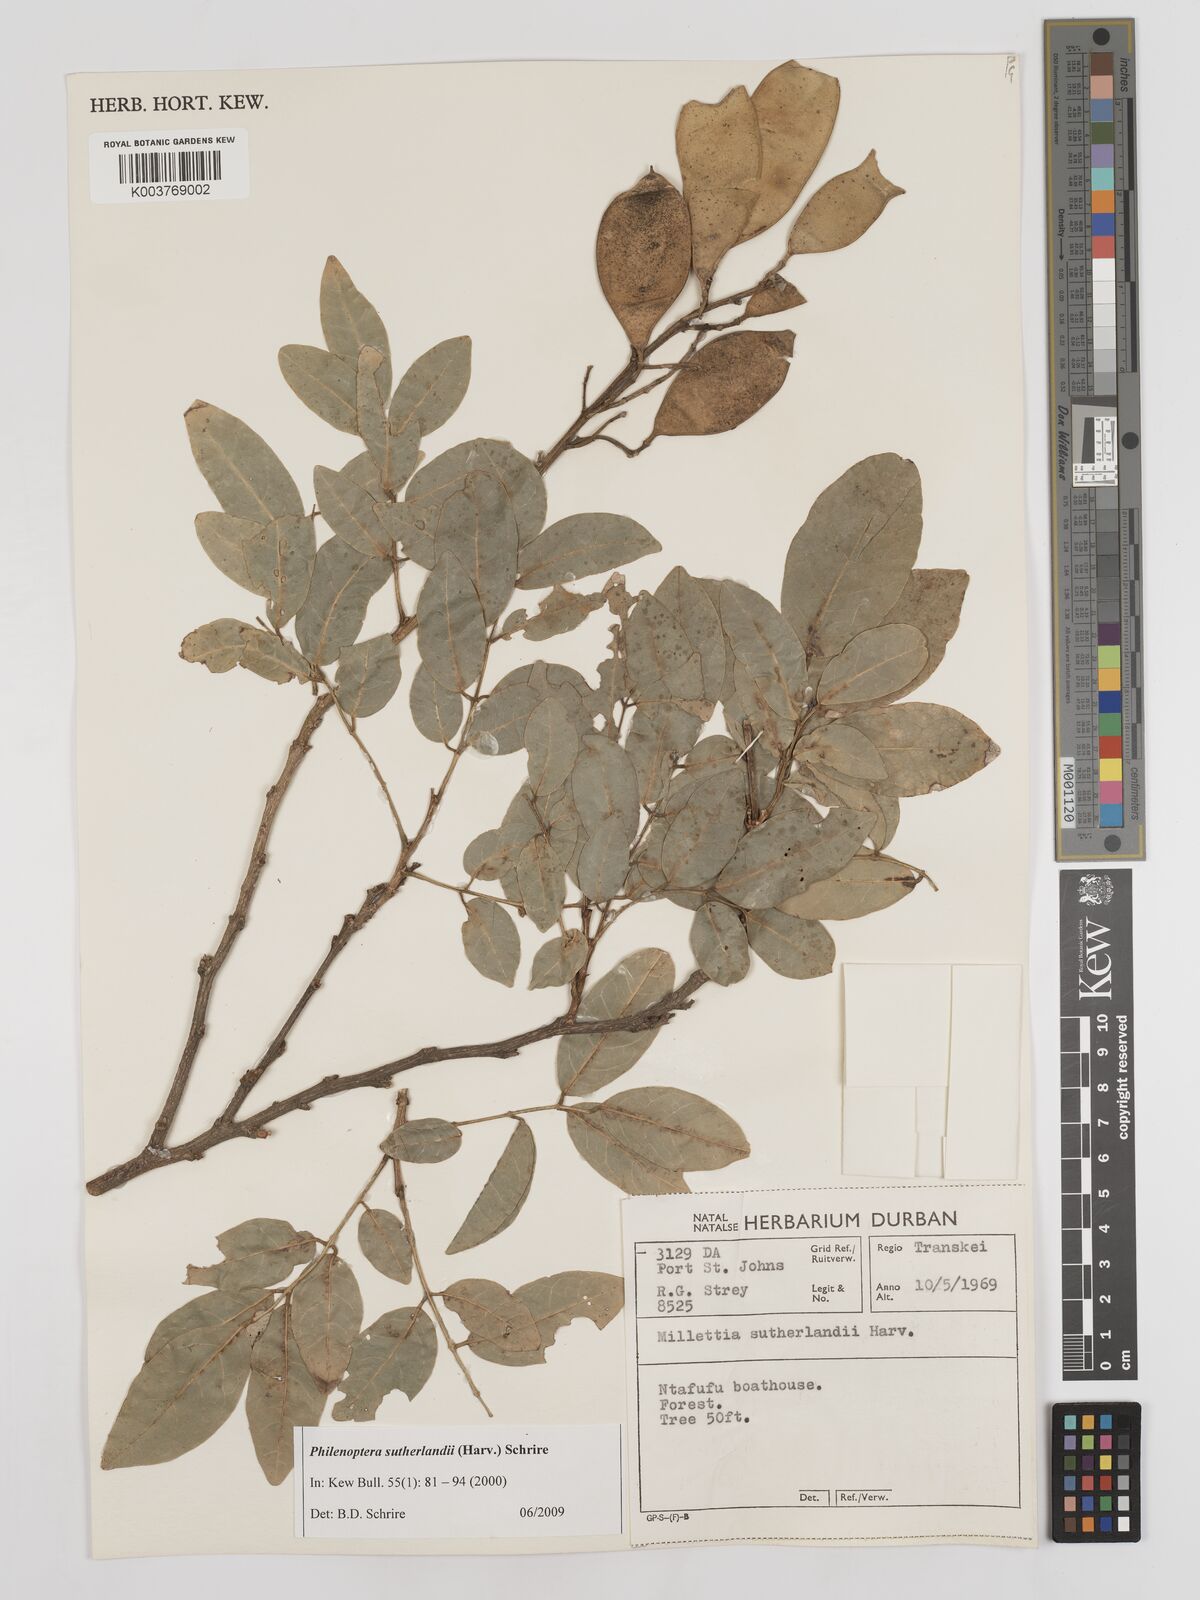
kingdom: Plantae
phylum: Tracheophyta
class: Magnoliopsida
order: Fabales
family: Fabaceae
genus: Philenoptera
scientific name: Philenoptera sutherlandii
